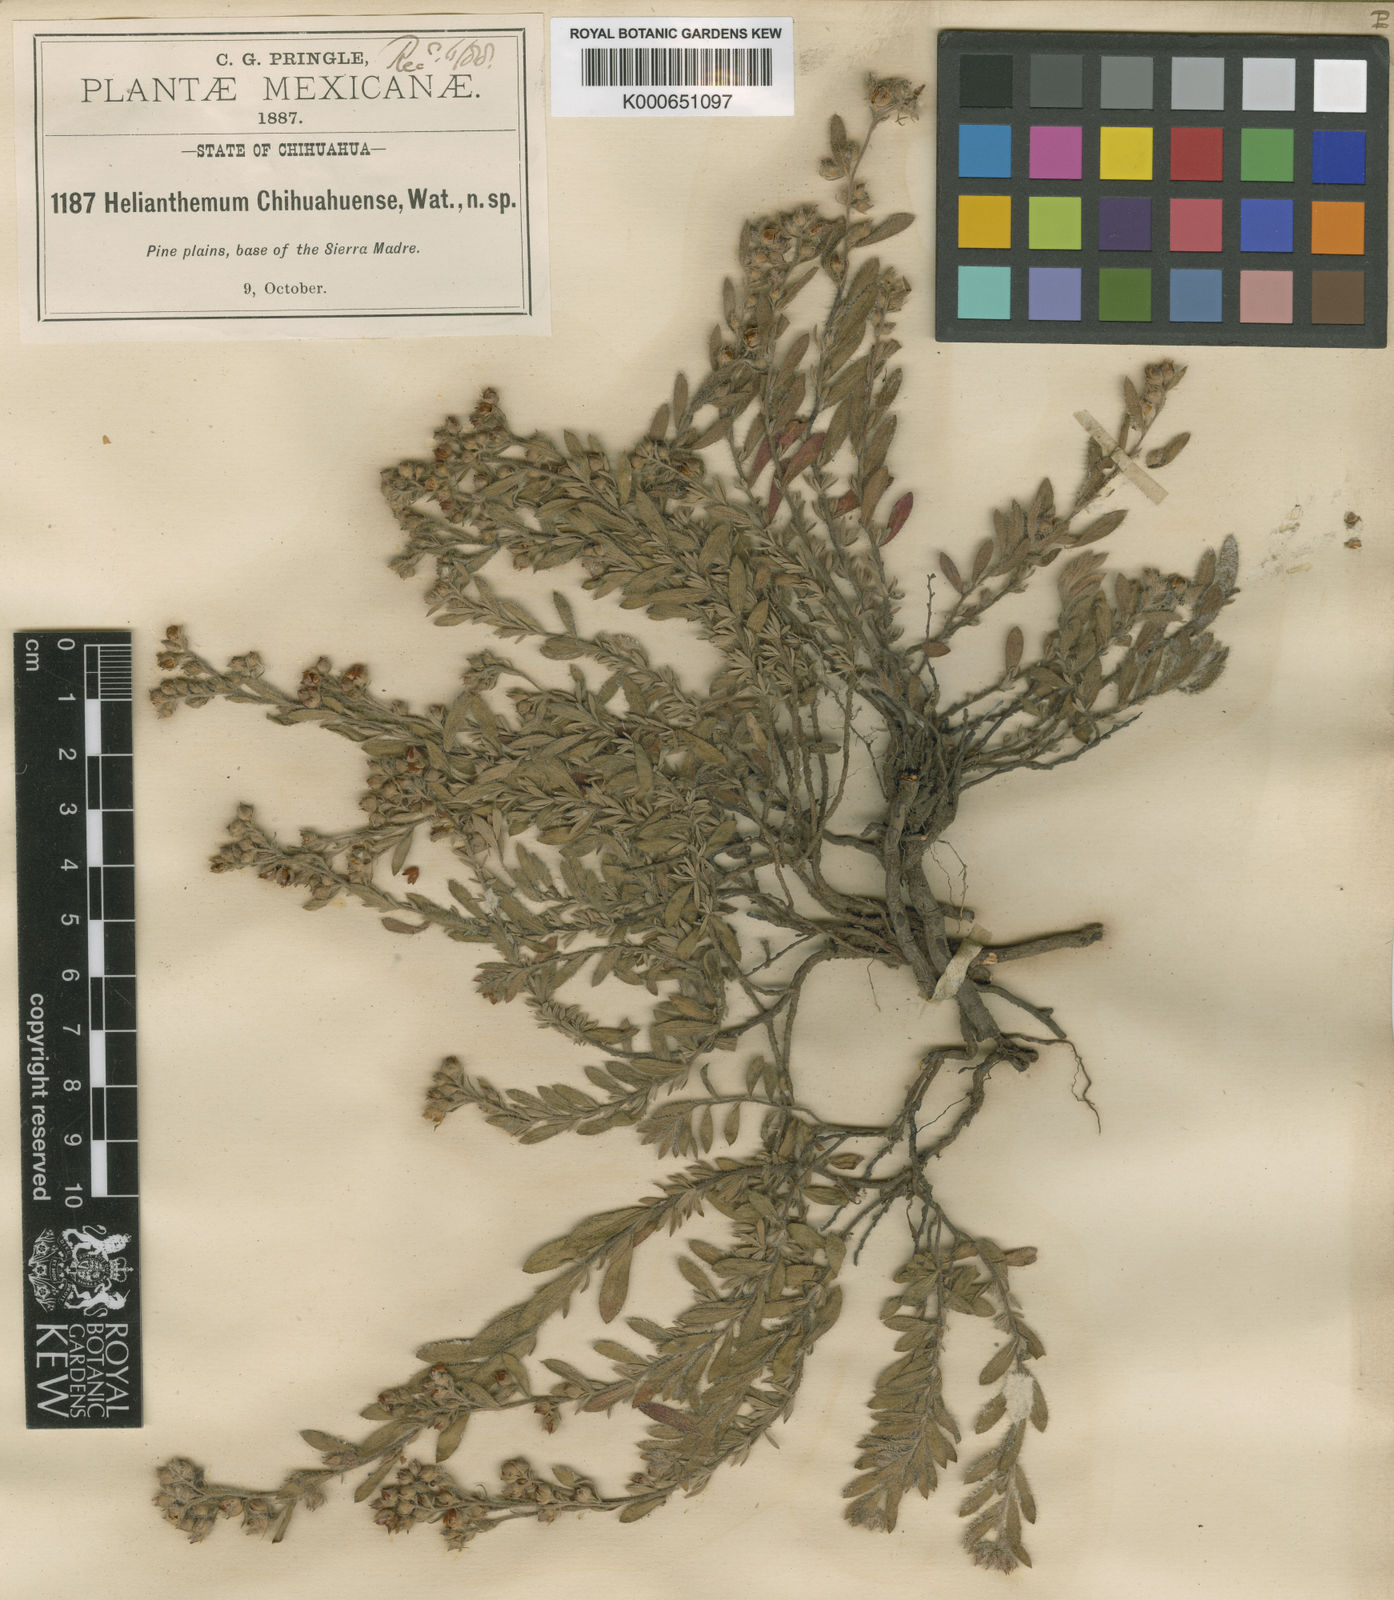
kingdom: Plantae
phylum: Tracheophyta
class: Magnoliopsida
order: Malvales
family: Cistaceae
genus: Crocanthemum
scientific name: Crocanthemum chihuahuense
